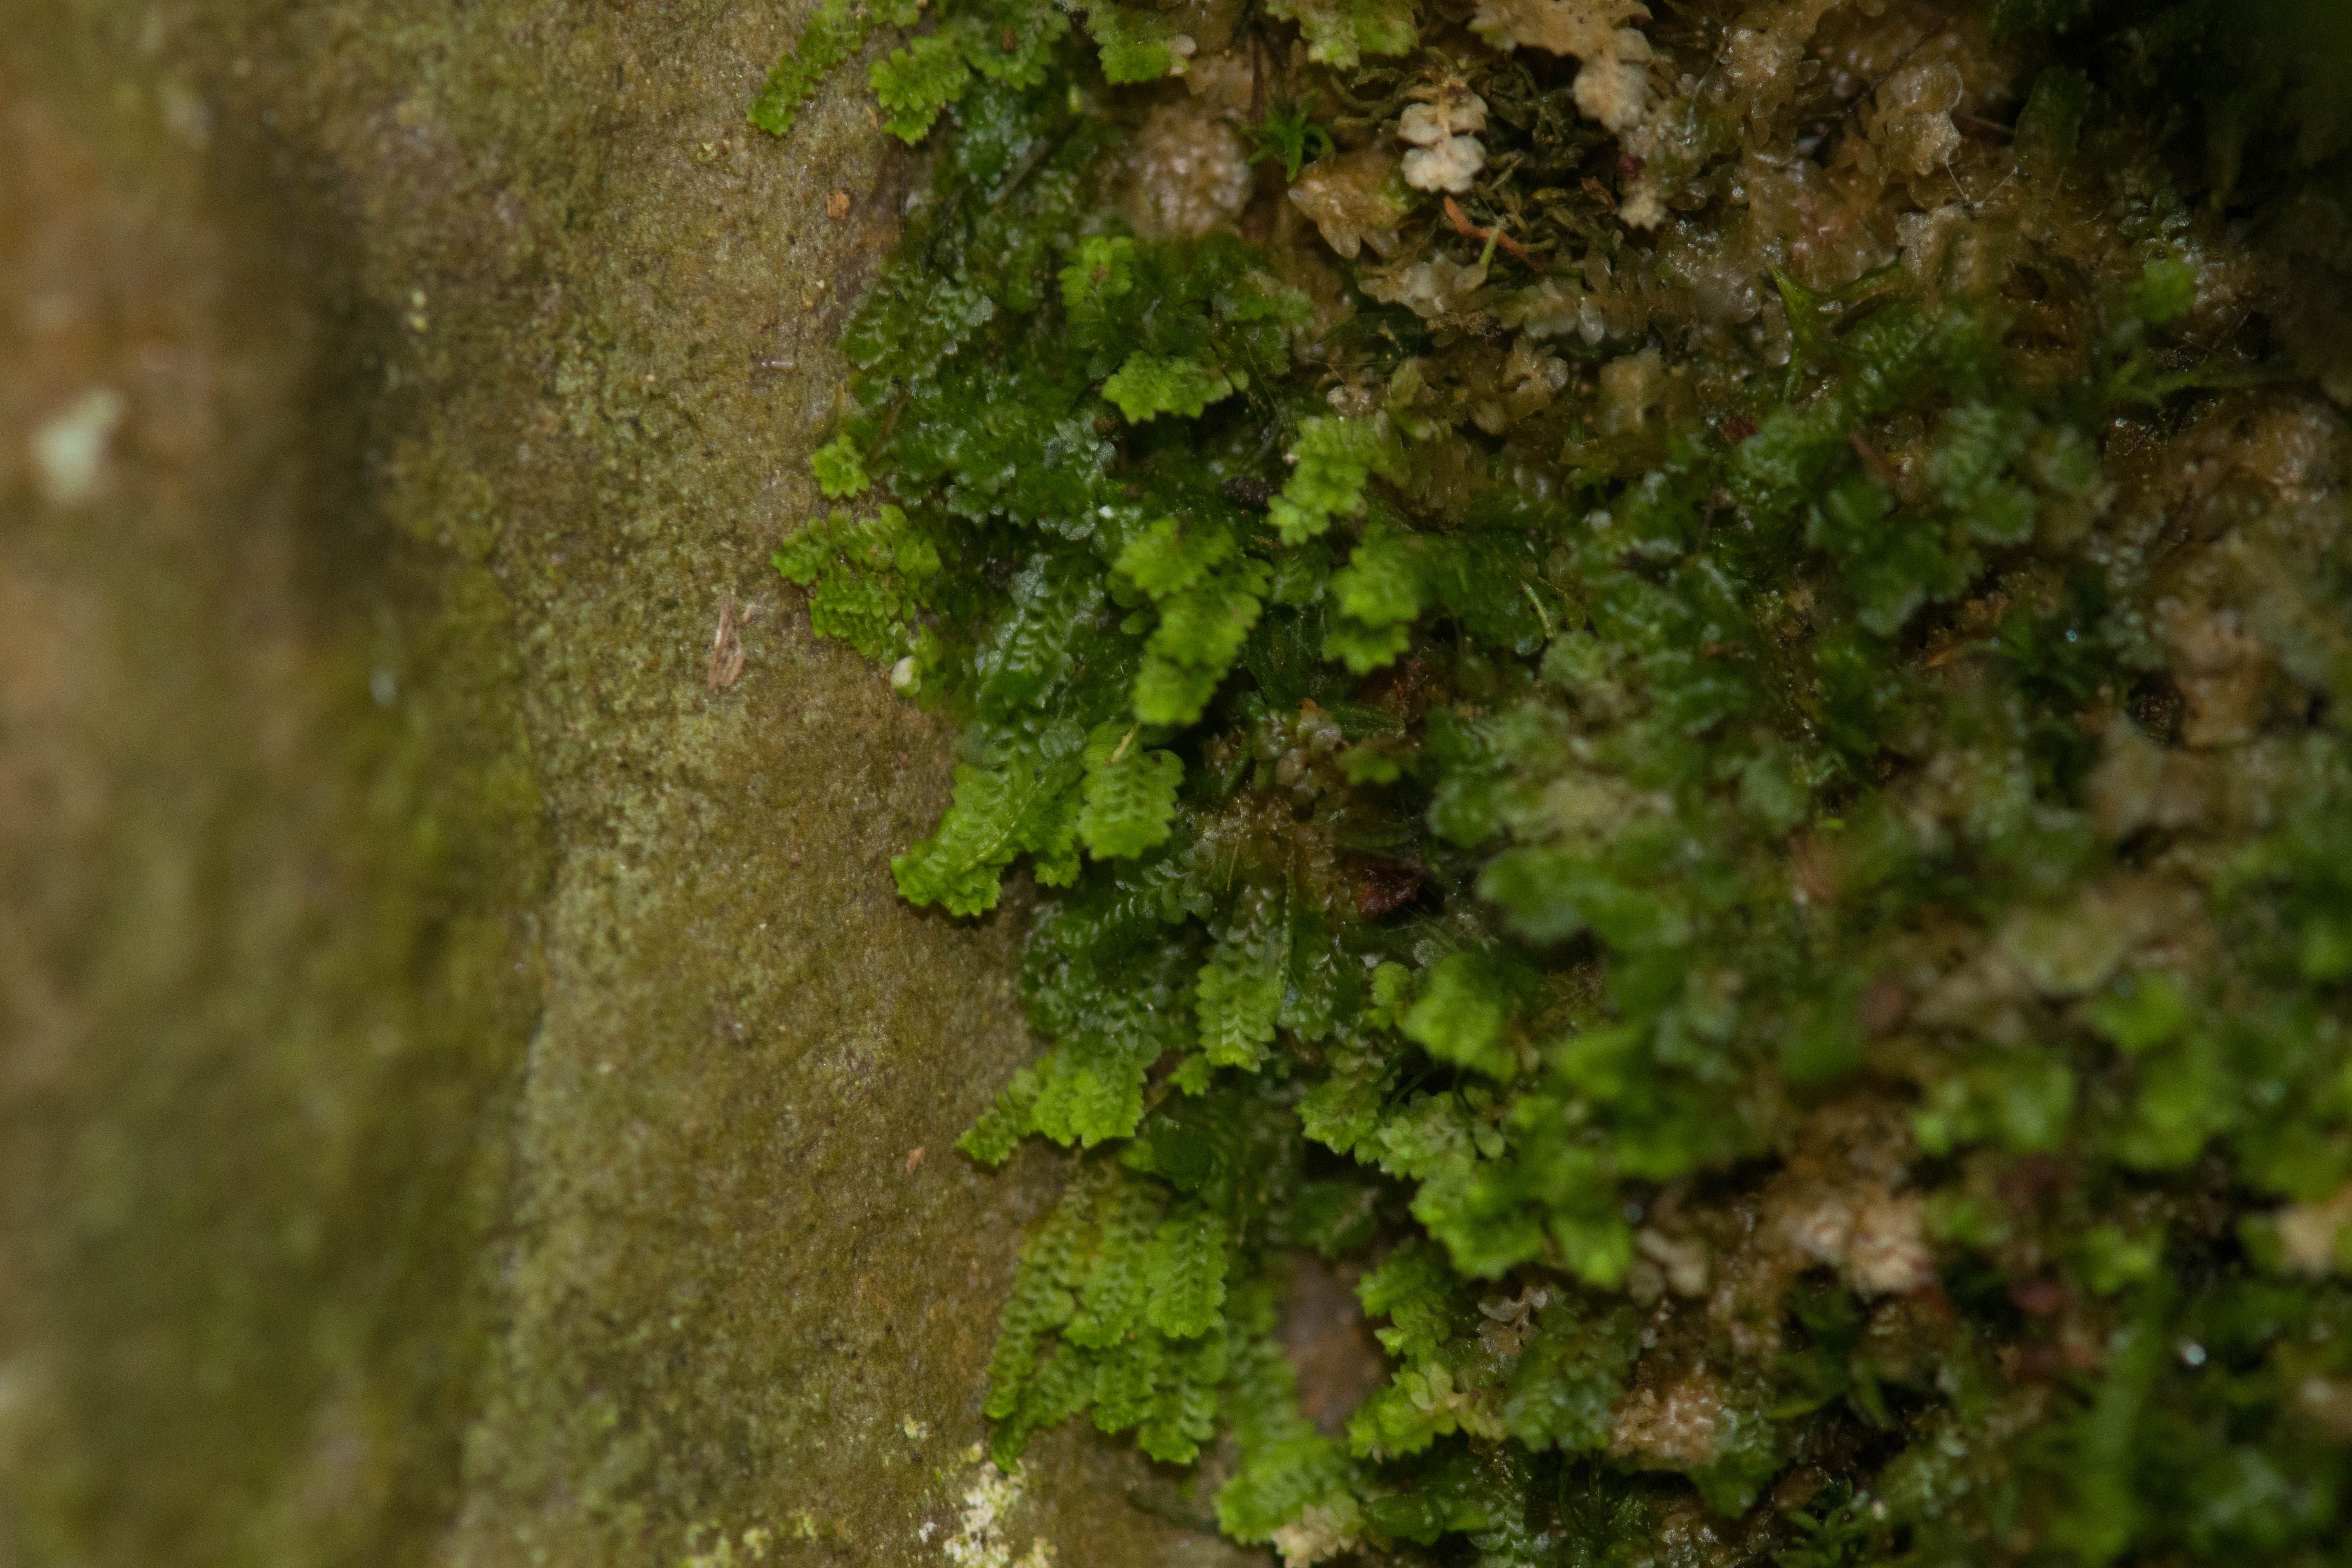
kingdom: Plantae
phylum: Marchantiophyta
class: Jungermanniopsida
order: Jungermanniales
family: Scapaniaceae
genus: Diplophyllum
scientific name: Diplophyllum apiculatum
